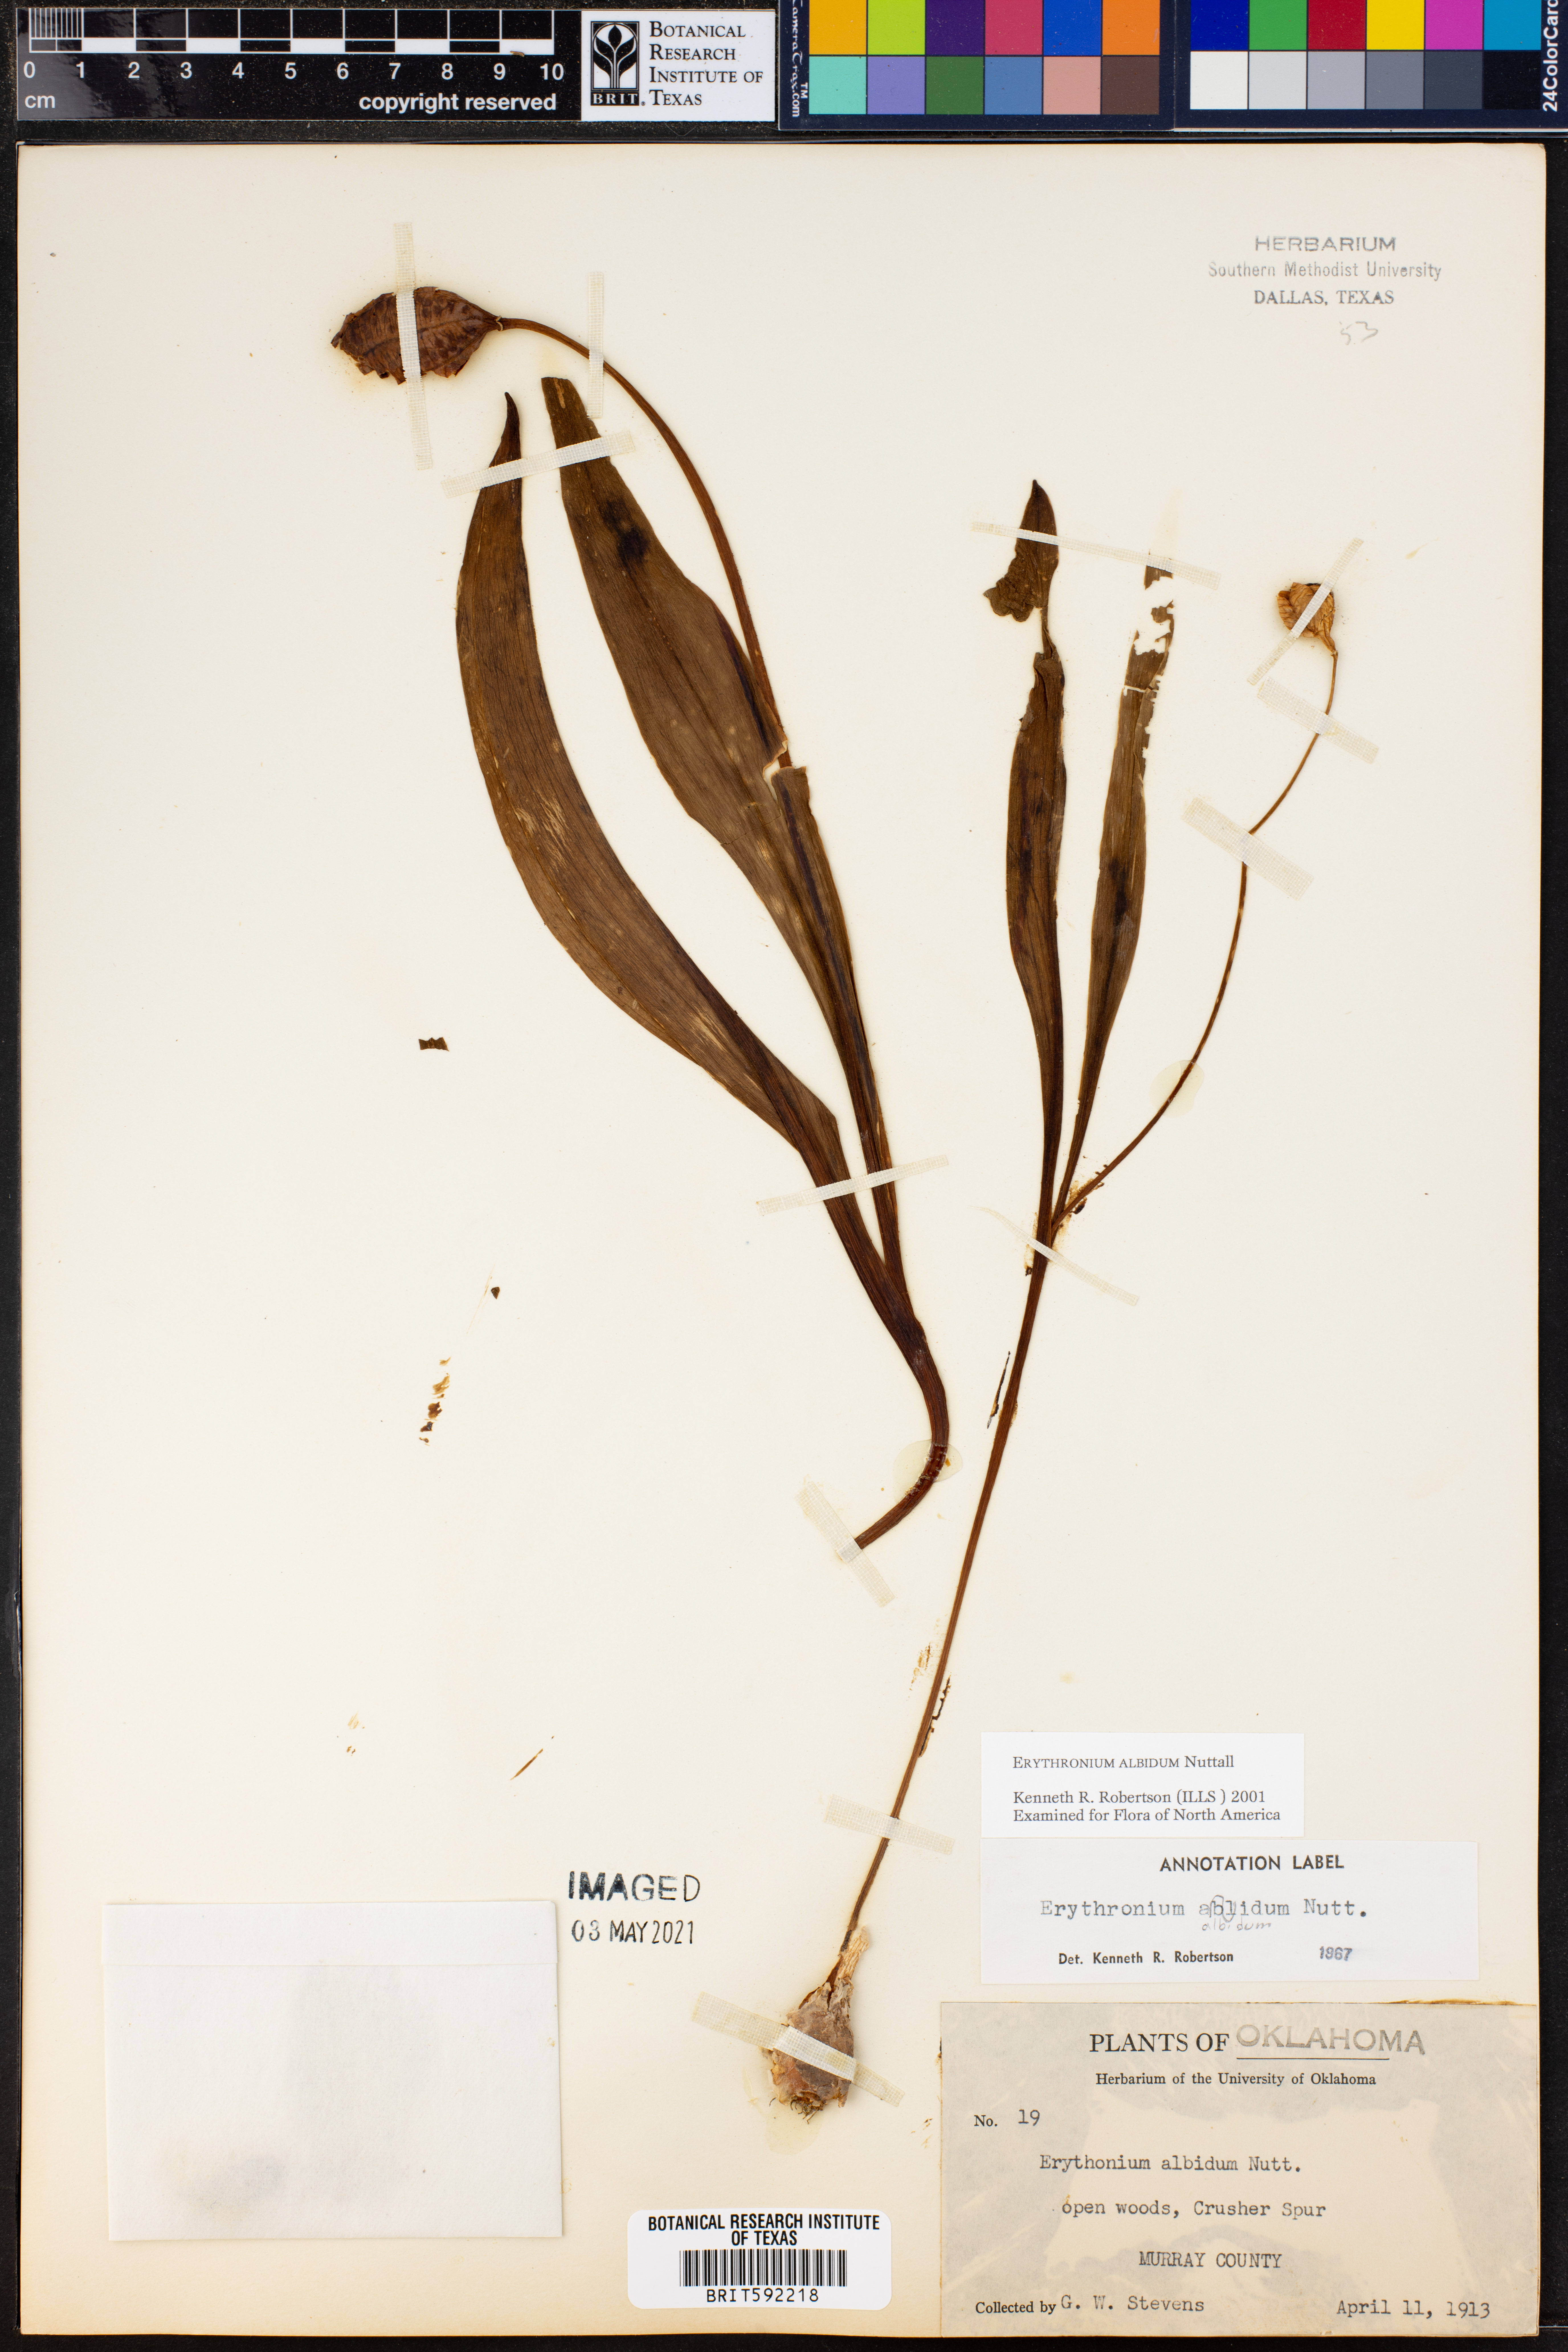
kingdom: Plantae
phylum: Tracheophyta
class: Liliopsida
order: Liliales
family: Liliaceae
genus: Erythronium
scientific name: Erythronium albidum
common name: White trout-lily
